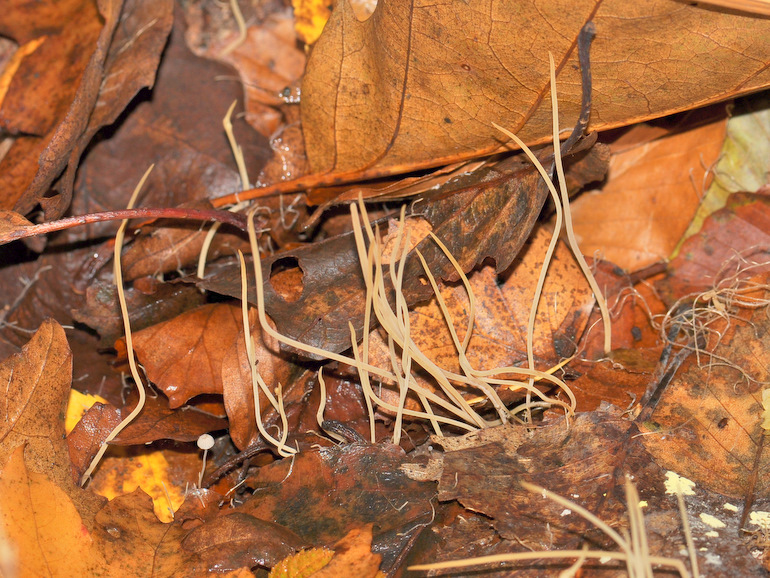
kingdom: Fungi
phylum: Basidiomycota
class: Agaricomycetes
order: Agaricales
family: Typhulaceae
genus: Typhula
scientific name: Typhula juncea
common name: trådagtig rørkølle
